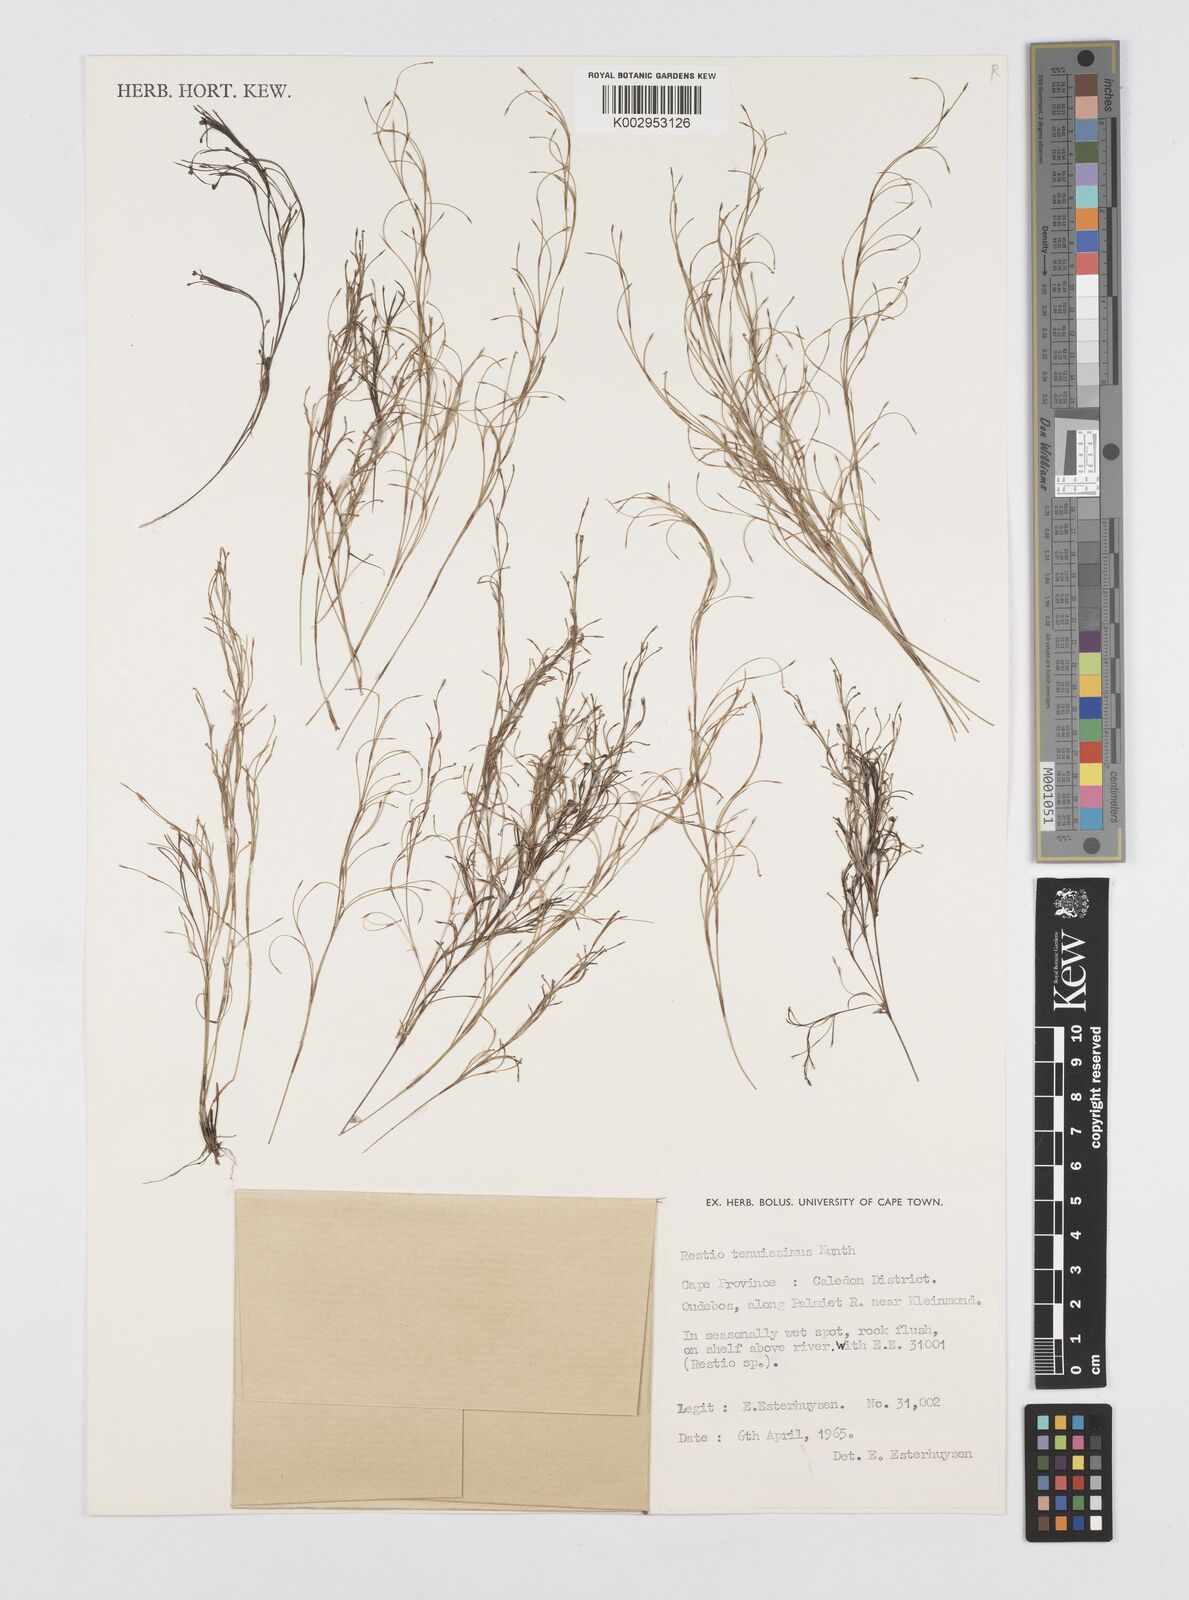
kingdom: Plantae
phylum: Tracheophyta
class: Liliopsida
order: Poales
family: Restionaceae
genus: Restio
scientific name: Restio tenuissimus
